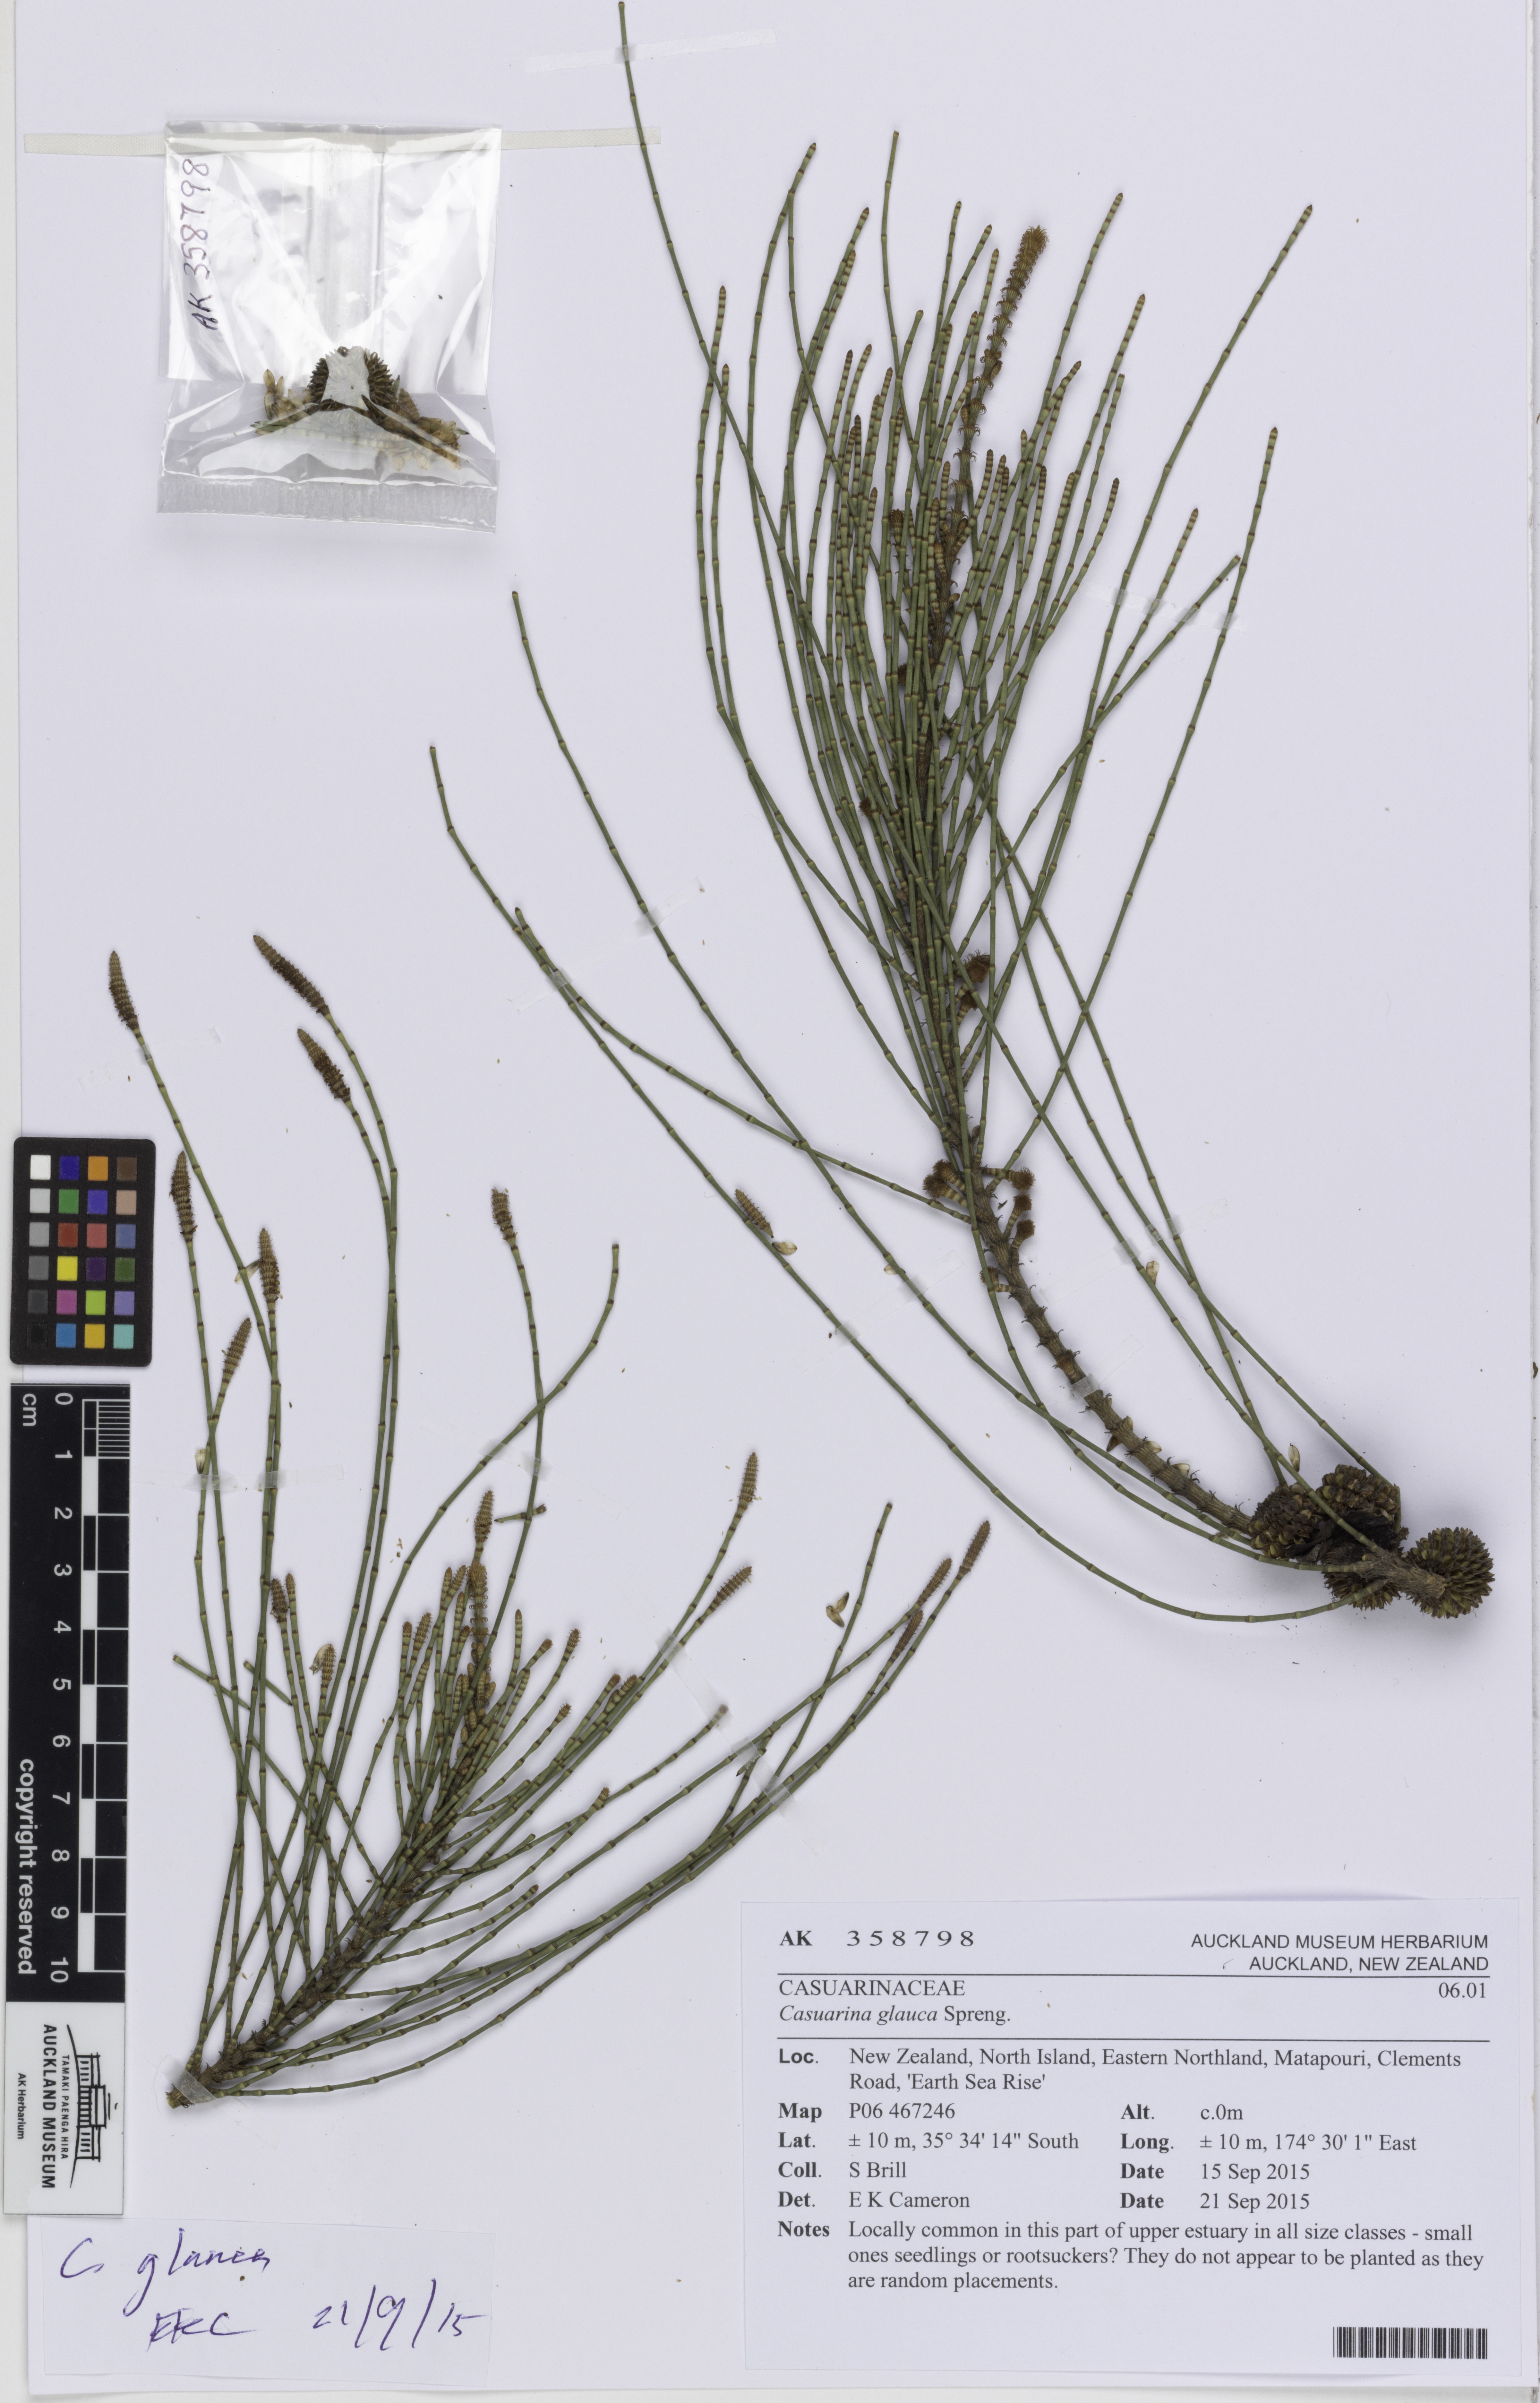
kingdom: Plantae
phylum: Tracheophyta
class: Magnoliopsida
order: Fagales
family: Casuarinaceae
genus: Casuarina
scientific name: Casuarina glauca
